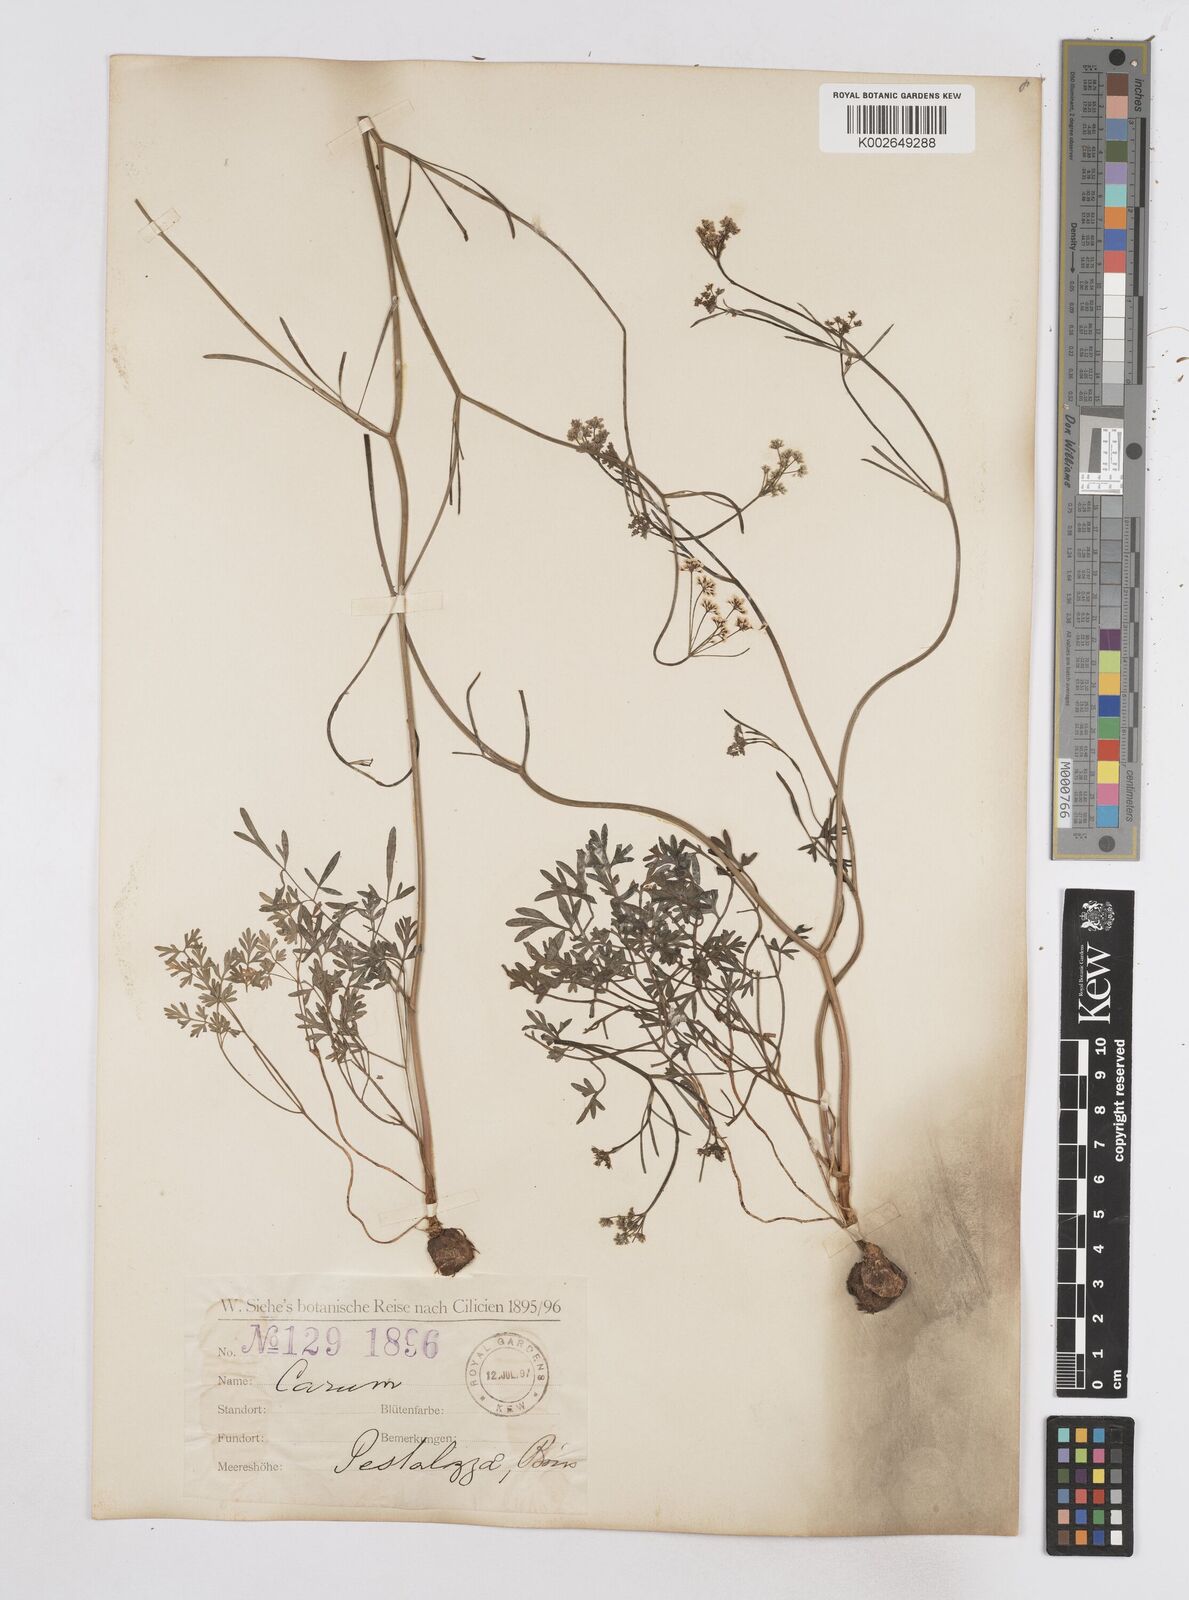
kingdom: Plantae
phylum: Tracheophyta
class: Magnoliopsida
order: Apiales
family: Apiaceae
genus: Bunium
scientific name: Bunium pestalozzae
